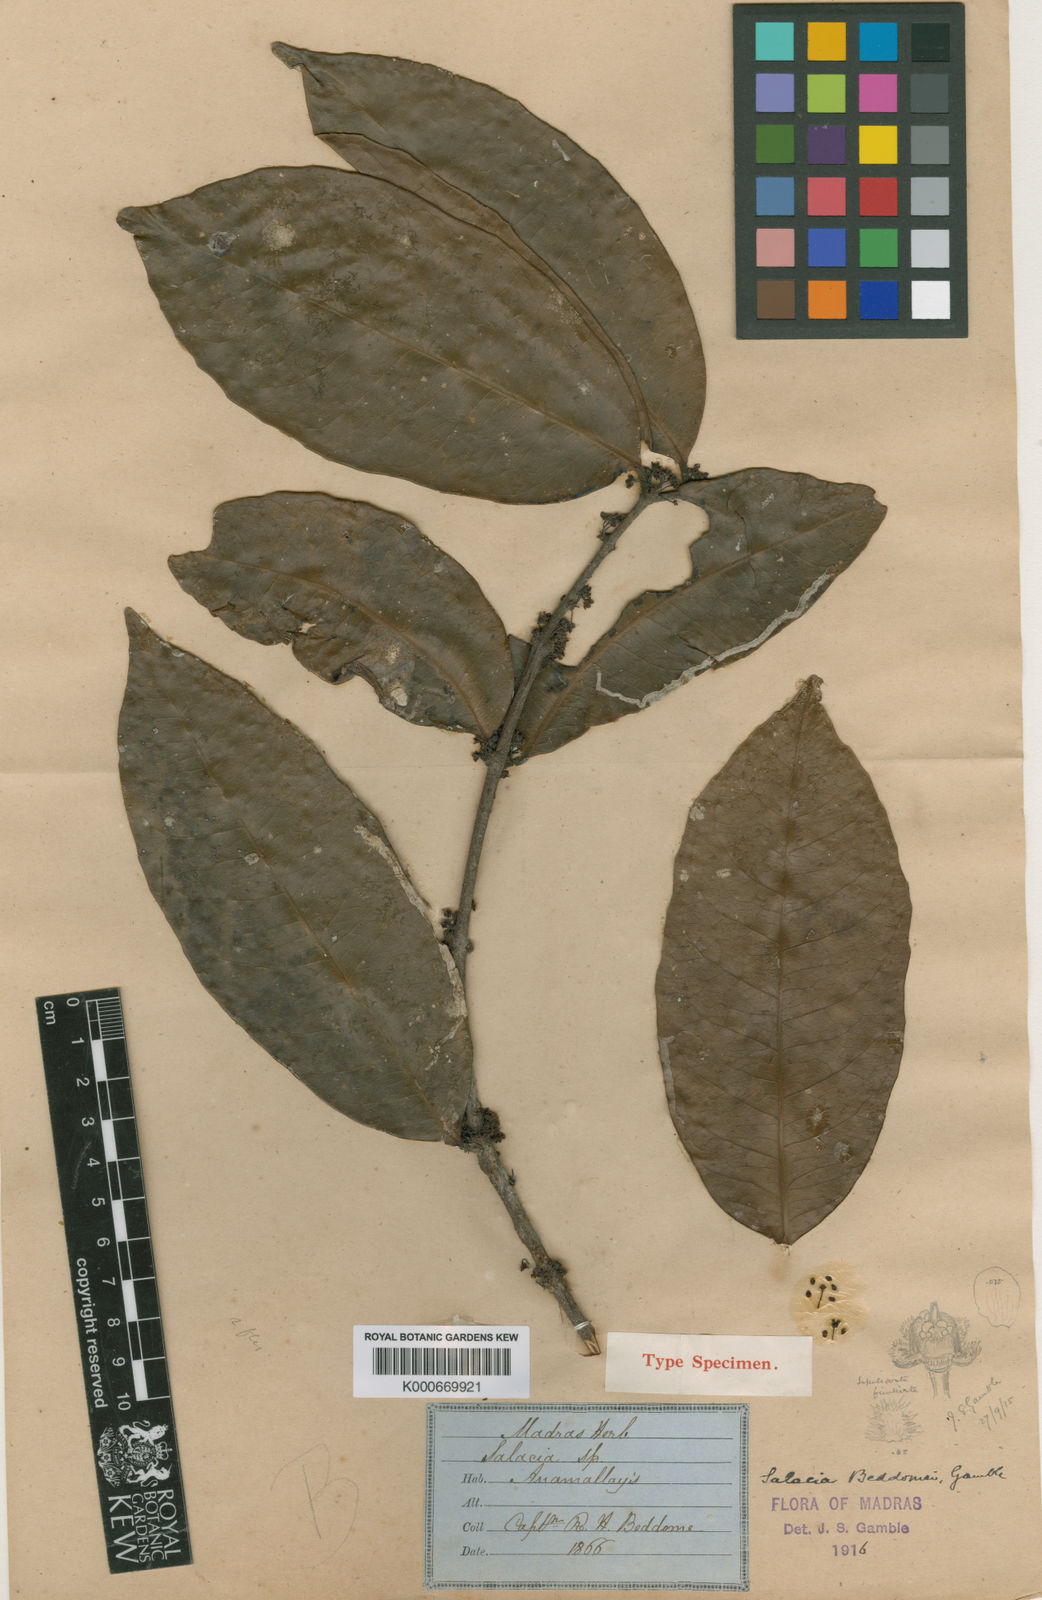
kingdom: Plantae
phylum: Tracheophyta
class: Magnoliopsida
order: Celastrales
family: Celastraceae
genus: Salacia
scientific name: Salacia beddomei
